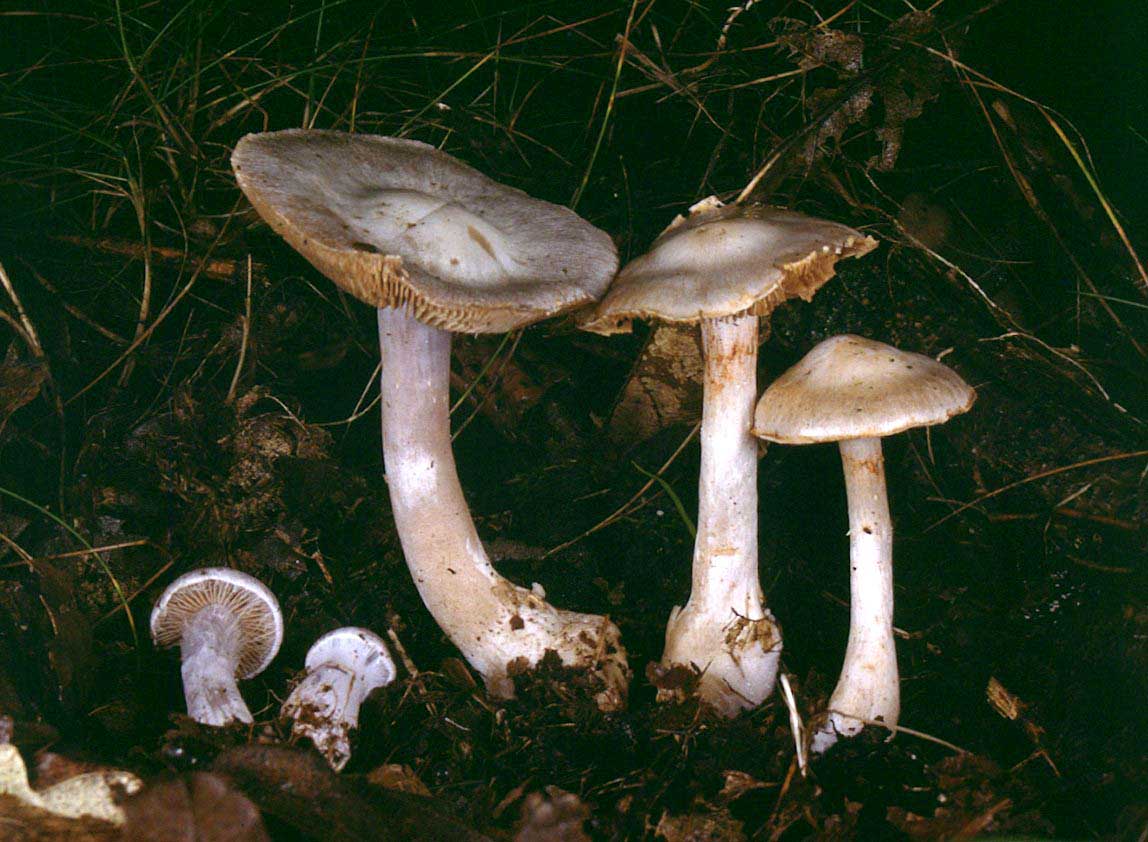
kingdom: Fungi
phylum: Basidiomycota
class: Agaricomycetes
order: Agaricales
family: Cortinariaceae
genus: Cortinarius
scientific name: Cortinarius alboviolaceus
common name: lysviolet slørhat
